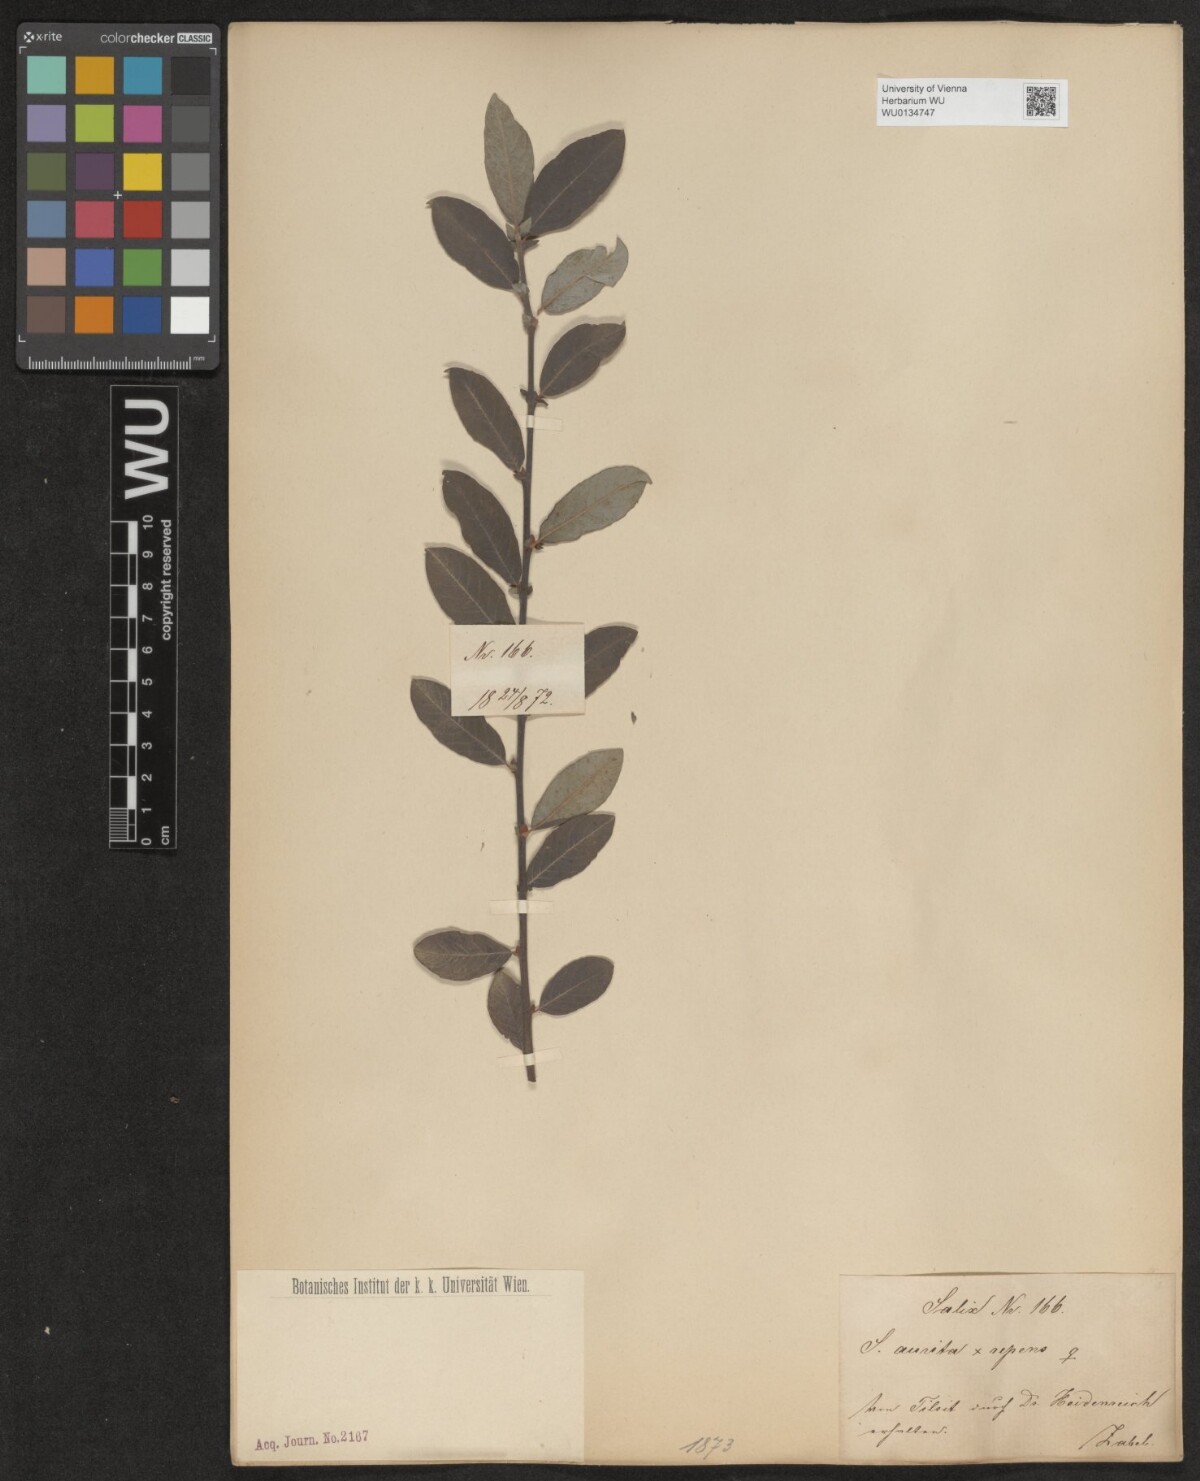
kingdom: Plantae
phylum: Tracheophyta
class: Magnoliopsida
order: Malpighiales
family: Salicaceae
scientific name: Salicaceae
